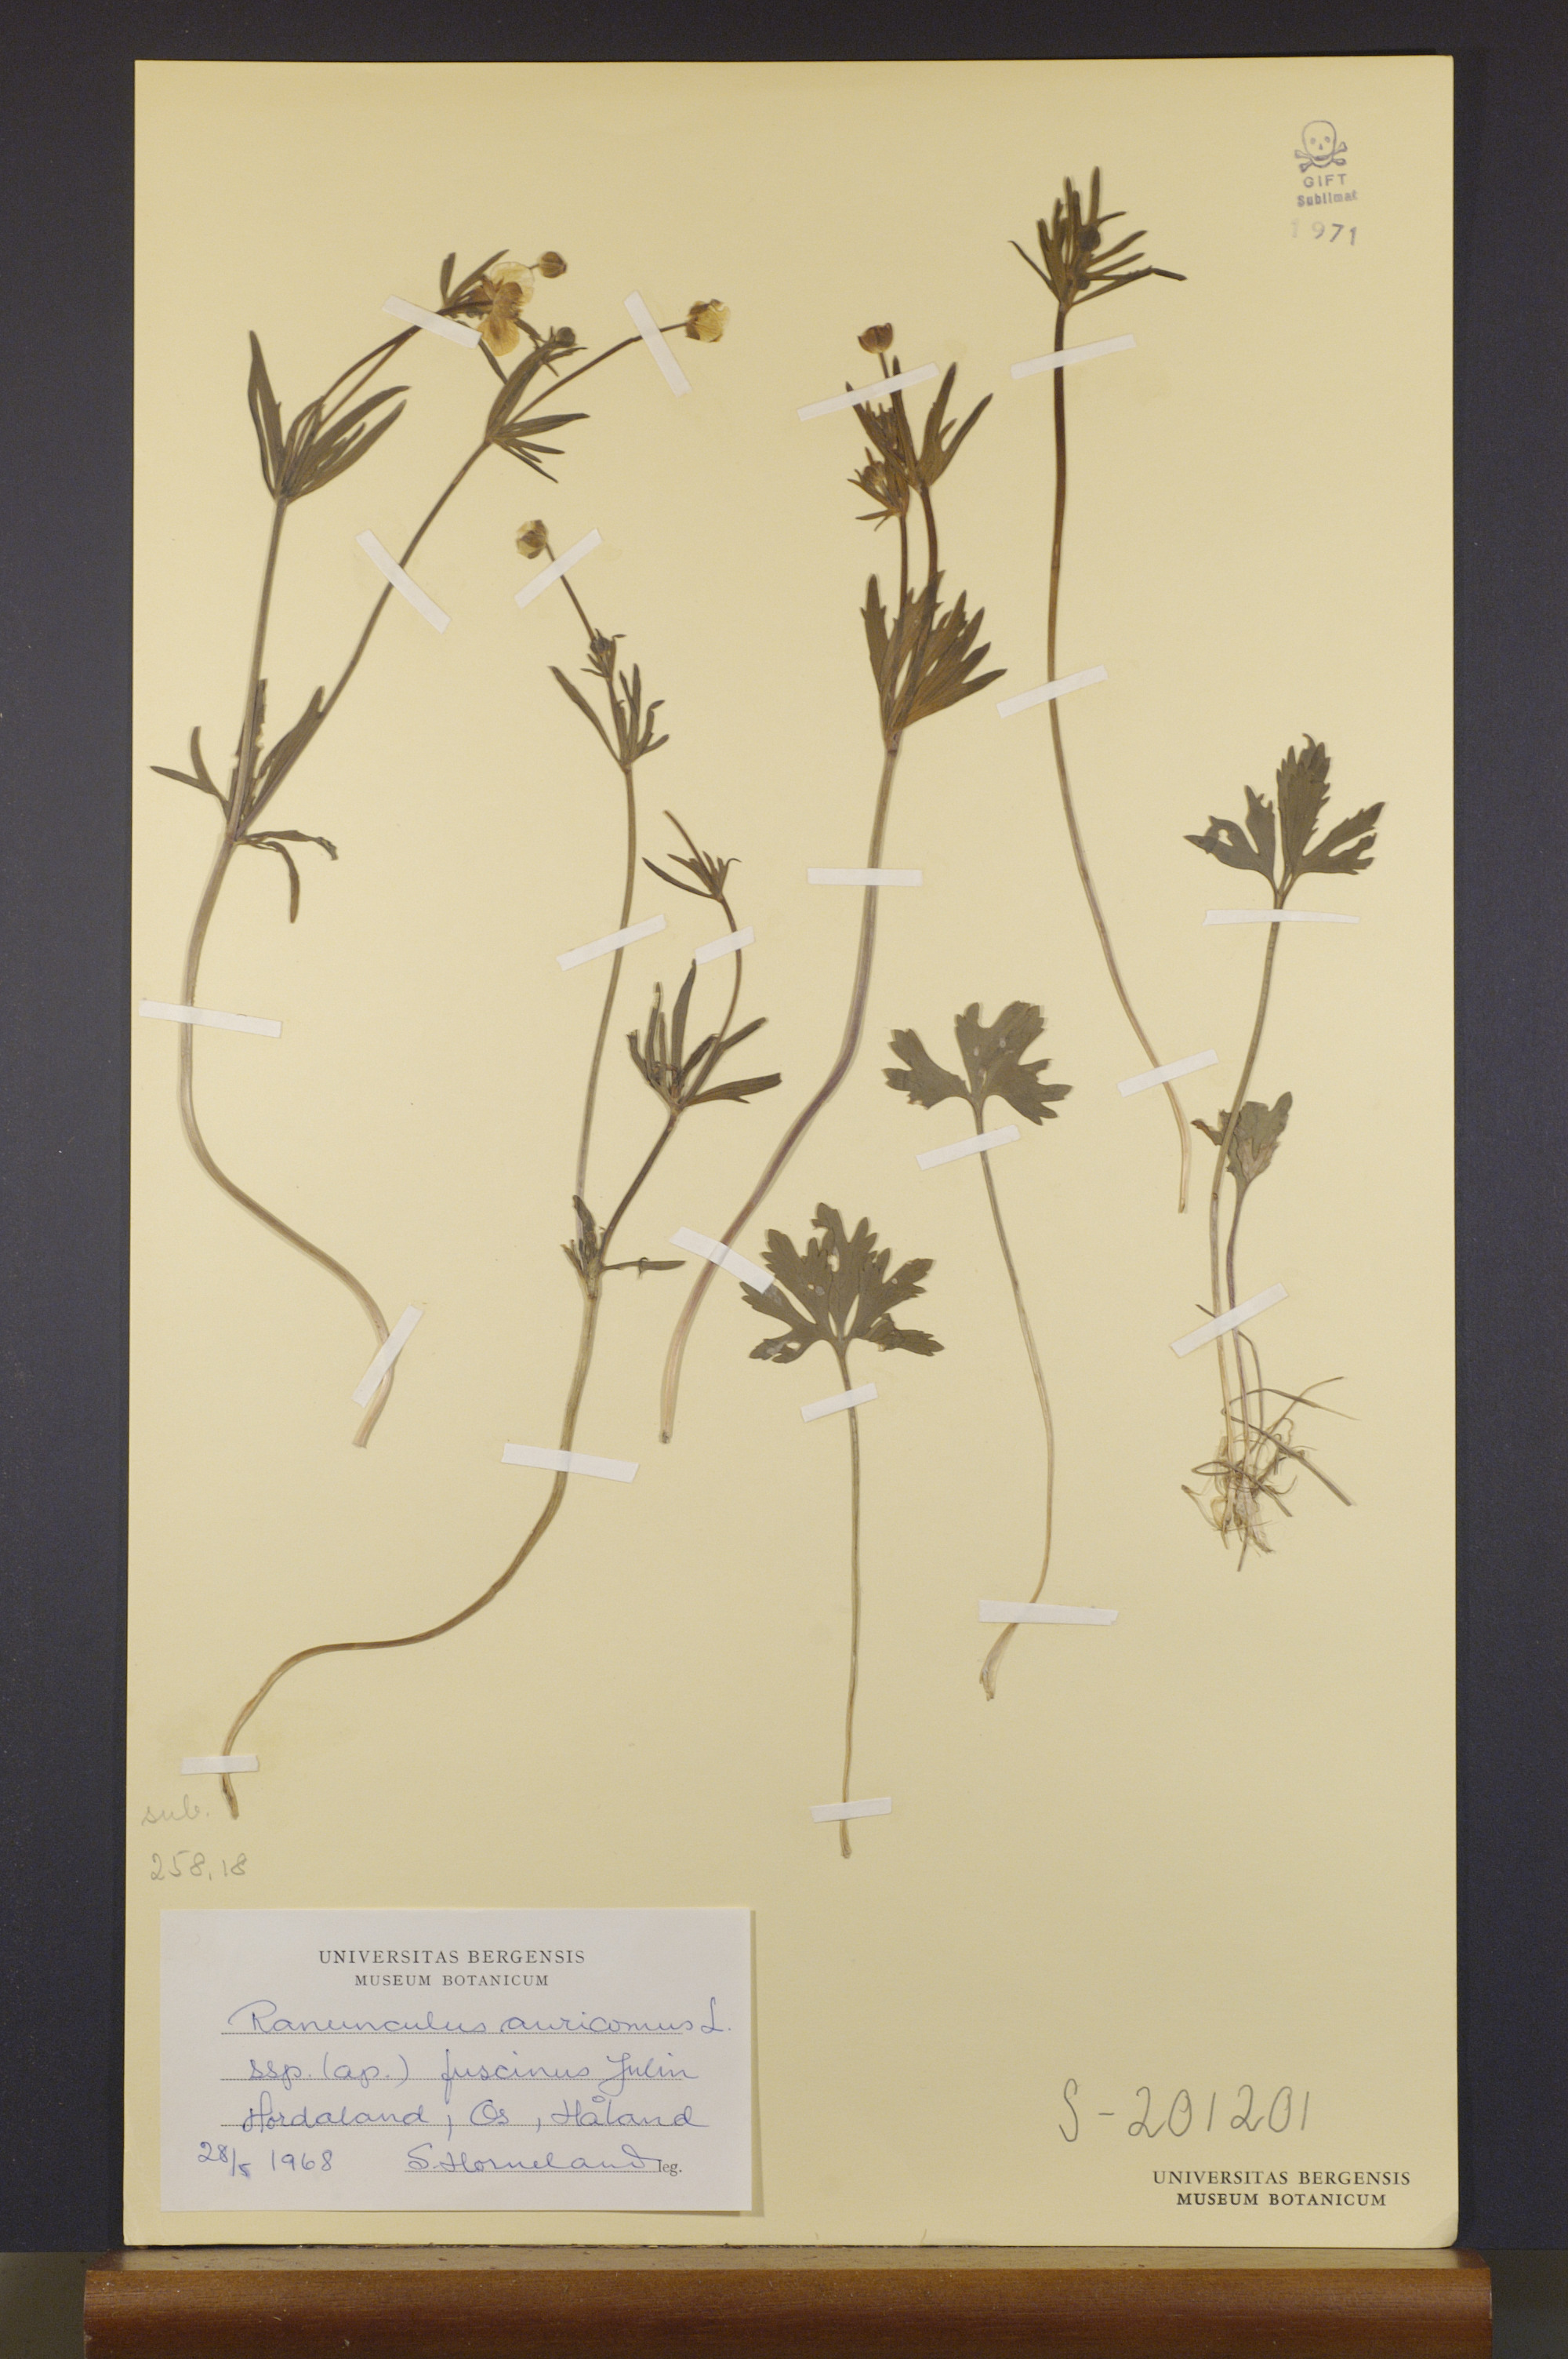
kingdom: Plantae
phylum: Tracheophyta
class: Magnoliopsida
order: Ranunculales
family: Ranunculaceae
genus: Ranunculus
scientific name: Ranunculus fuscinus
